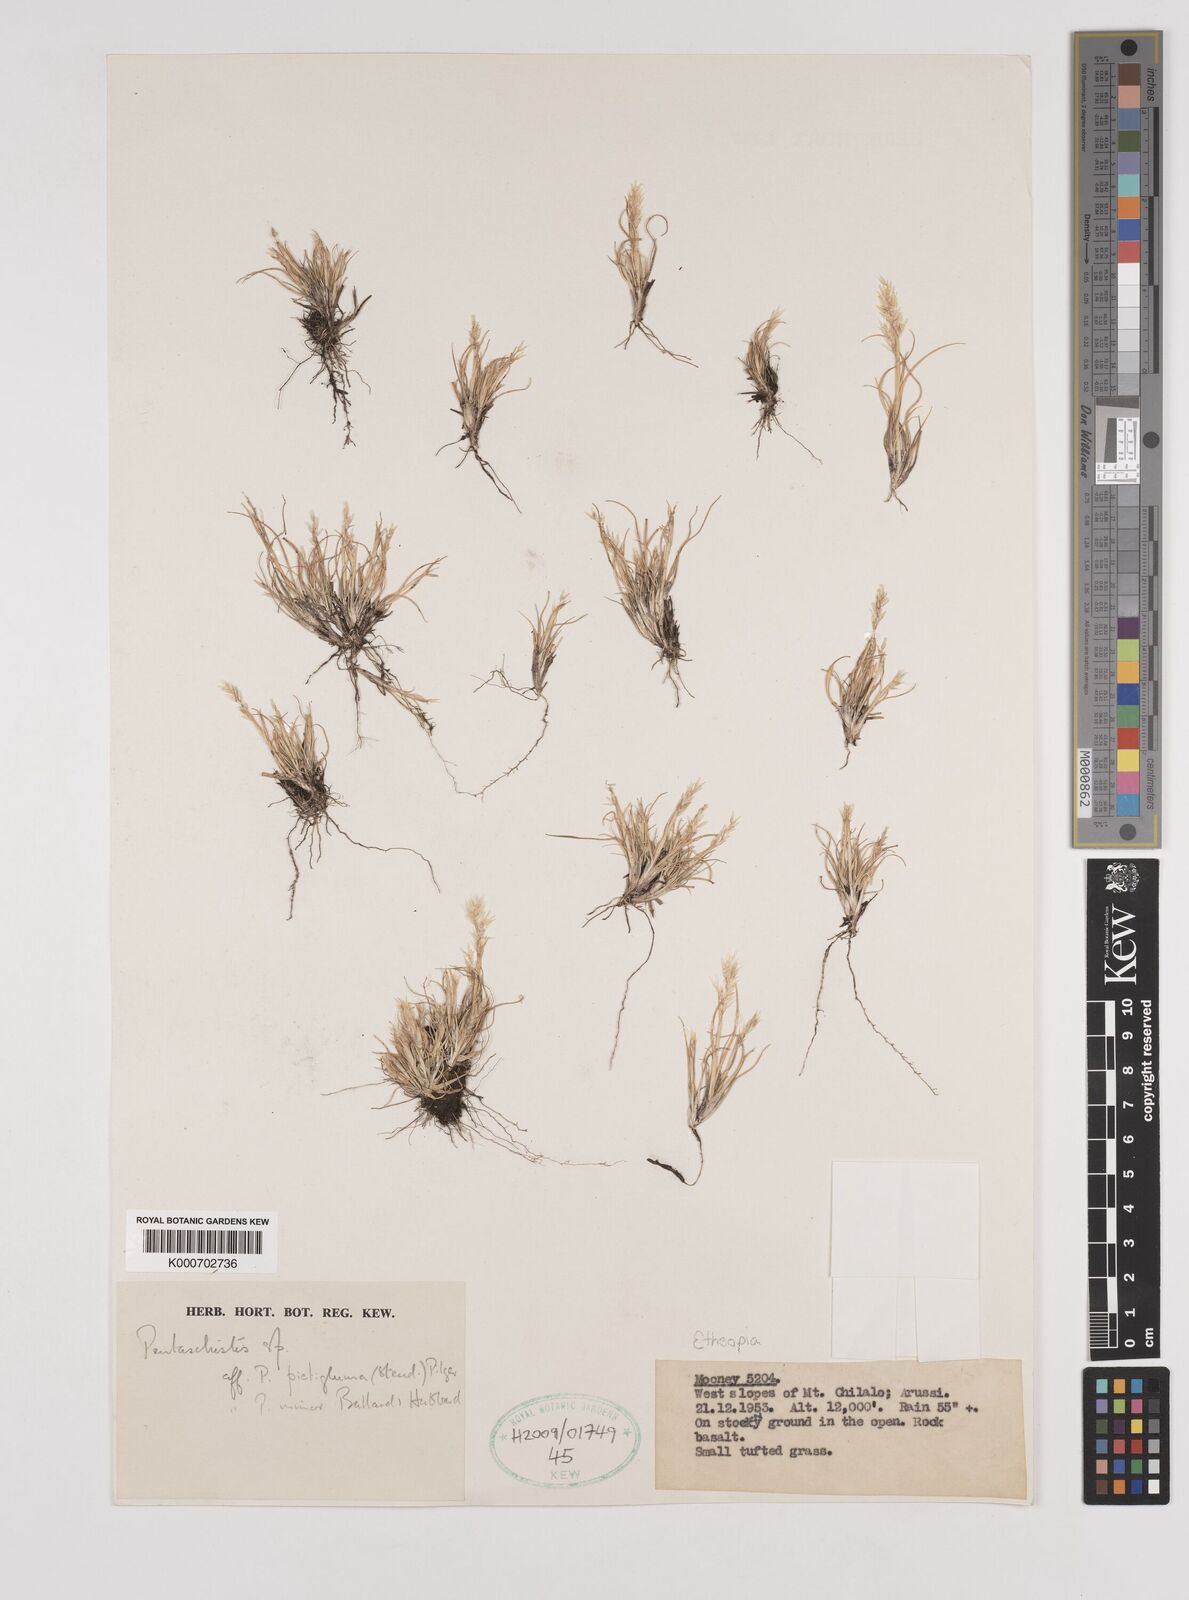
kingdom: Plantae
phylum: Tracheophyta
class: Liliopsida
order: Poales
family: Poaceae
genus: Pentameris
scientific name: Pentameris pictigluma
